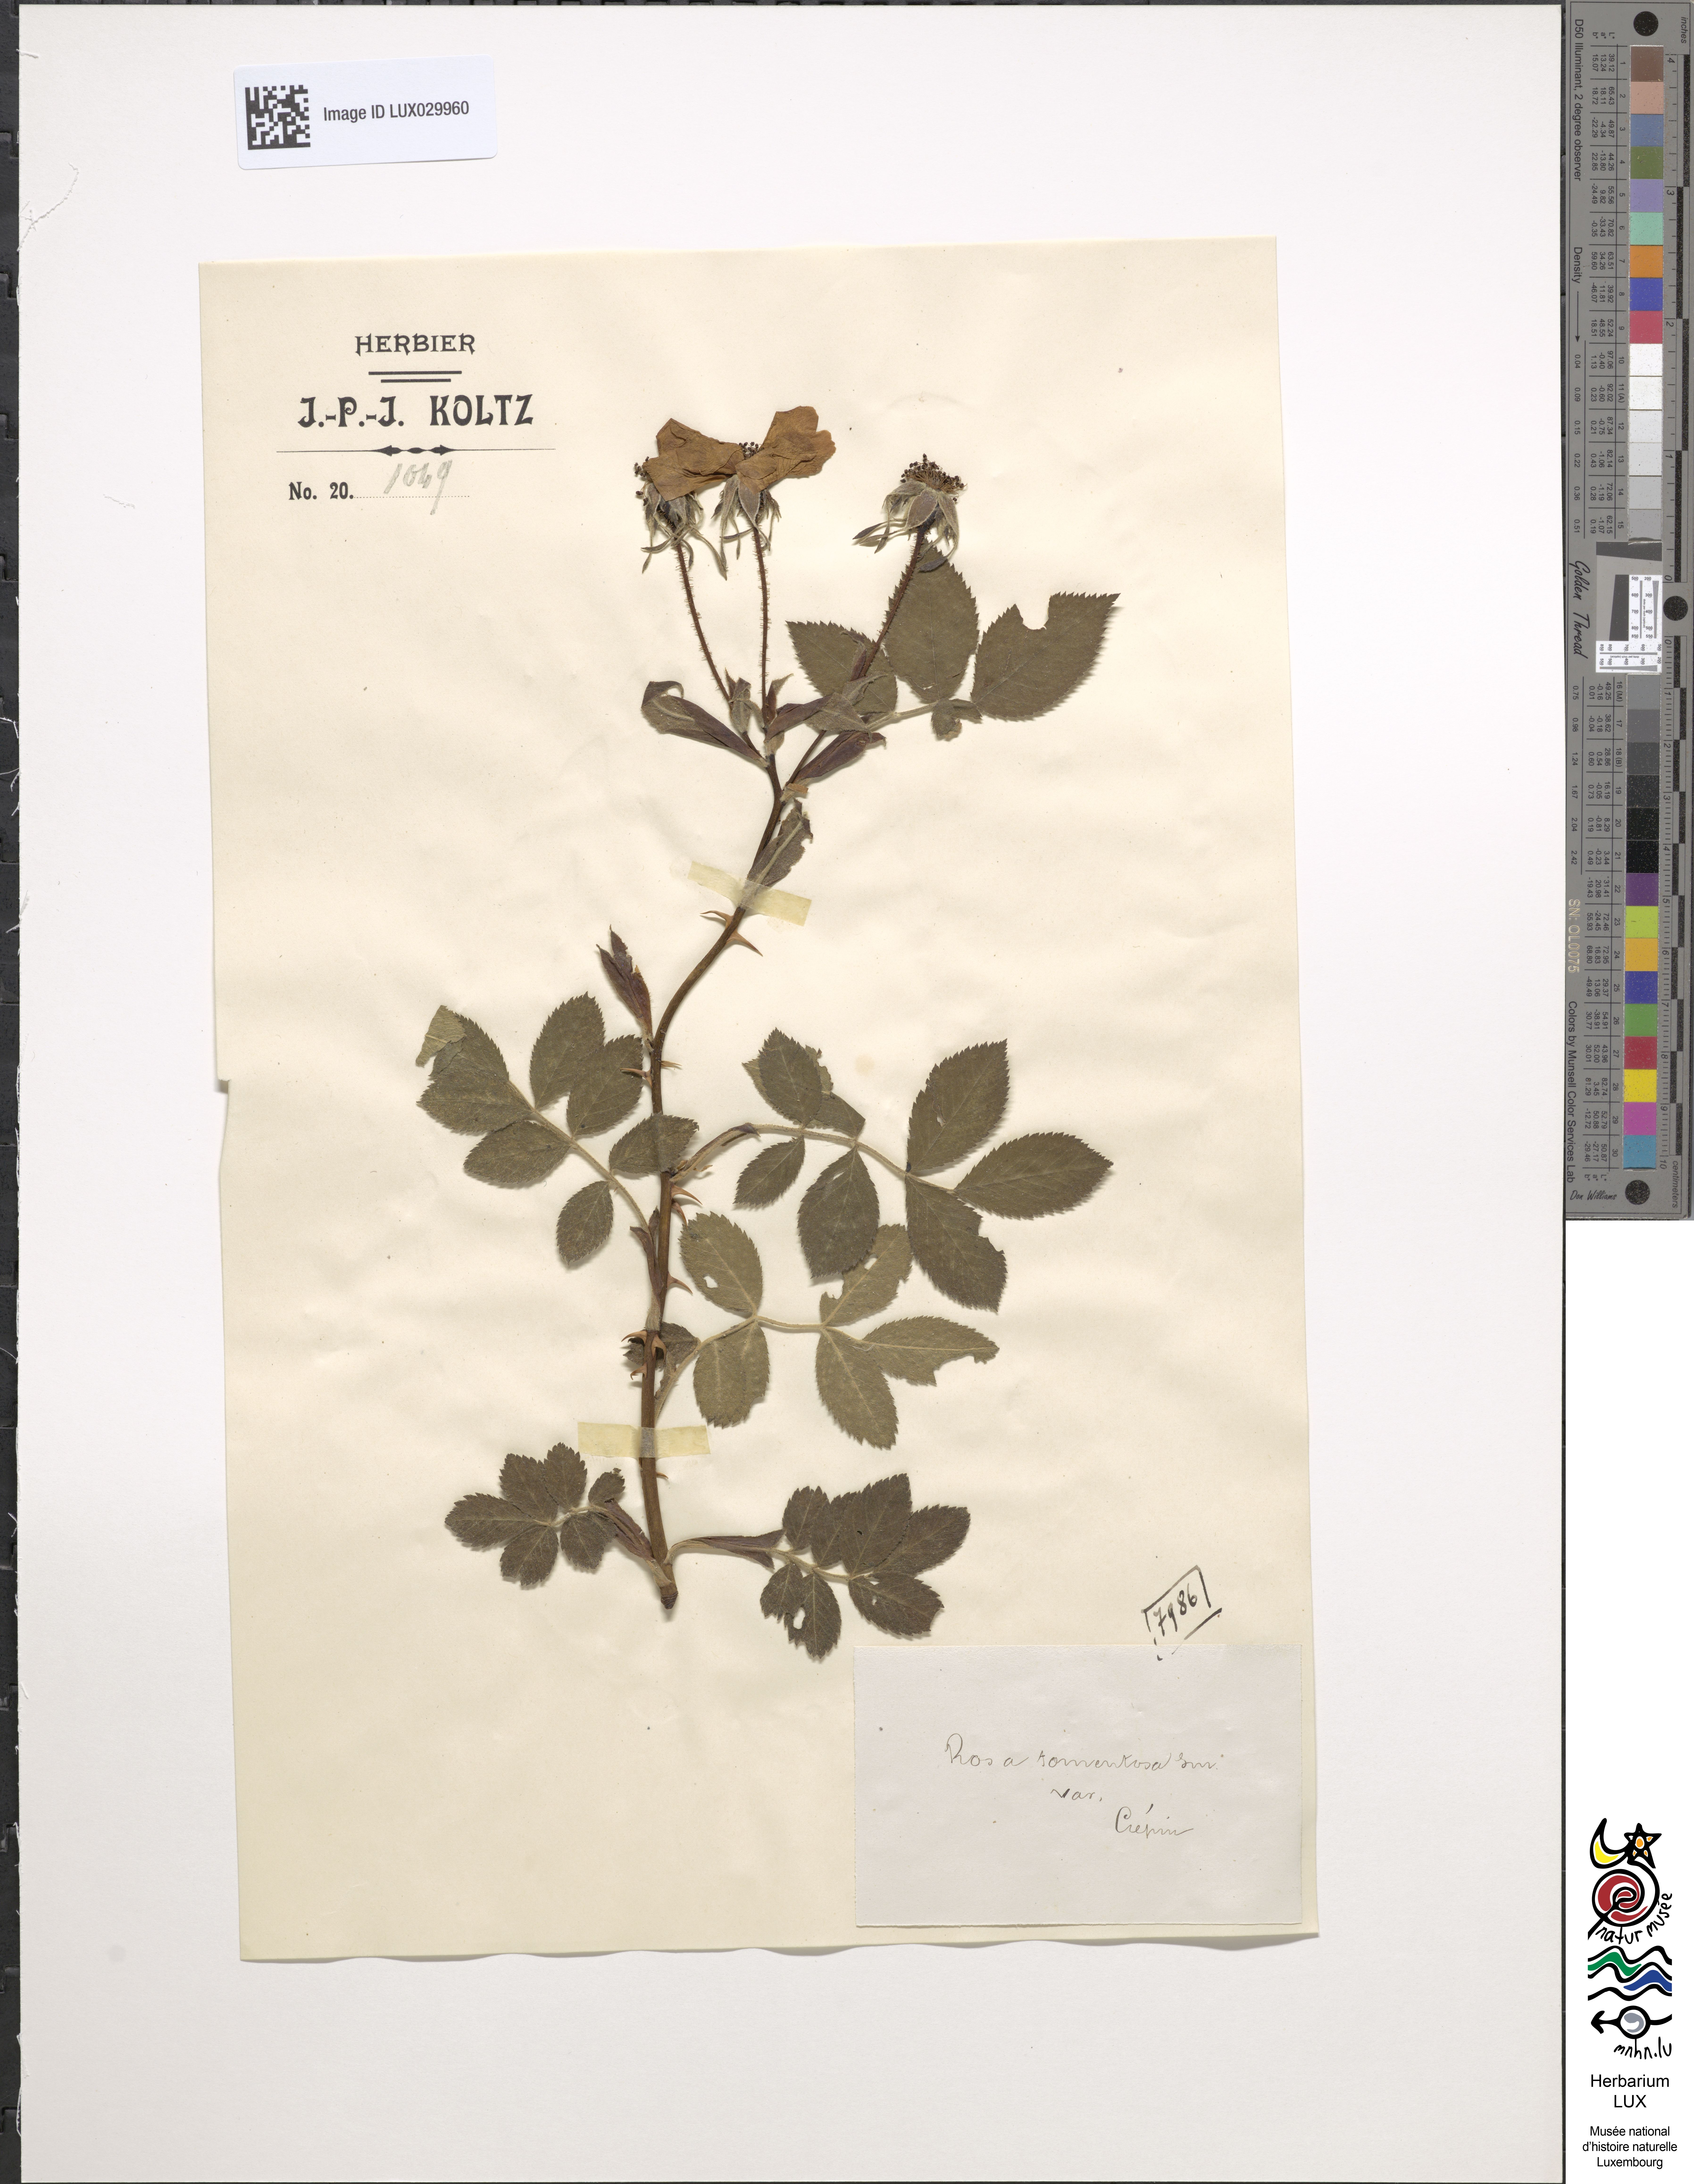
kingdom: Plantae
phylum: Tracheophyta
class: Magnoliopsida
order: Rosales
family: Rosaceae
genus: Rosa
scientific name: Rosa tomentosa
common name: Downy rose
